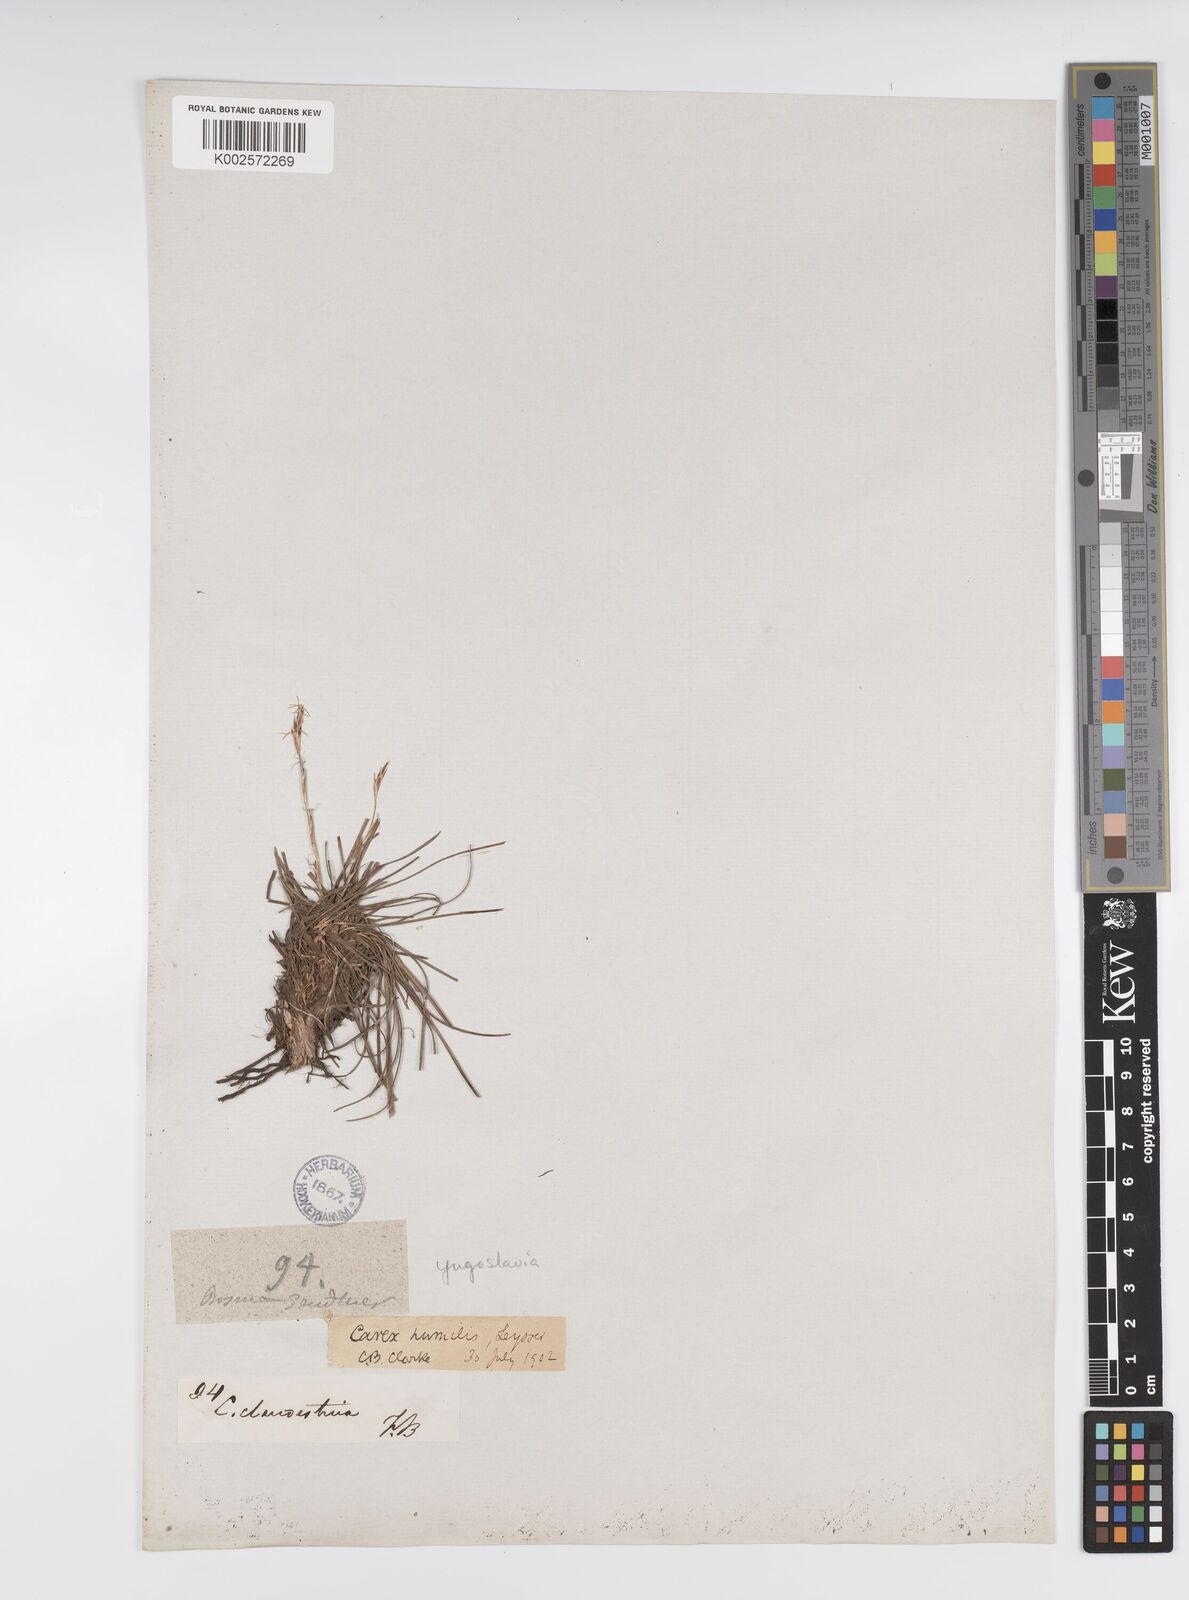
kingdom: Plantae
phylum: Tracheophyta
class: Liliopsida
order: Poales
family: Cyperaceae
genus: Carex
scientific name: Carex humilis
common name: Dwarf sedge
